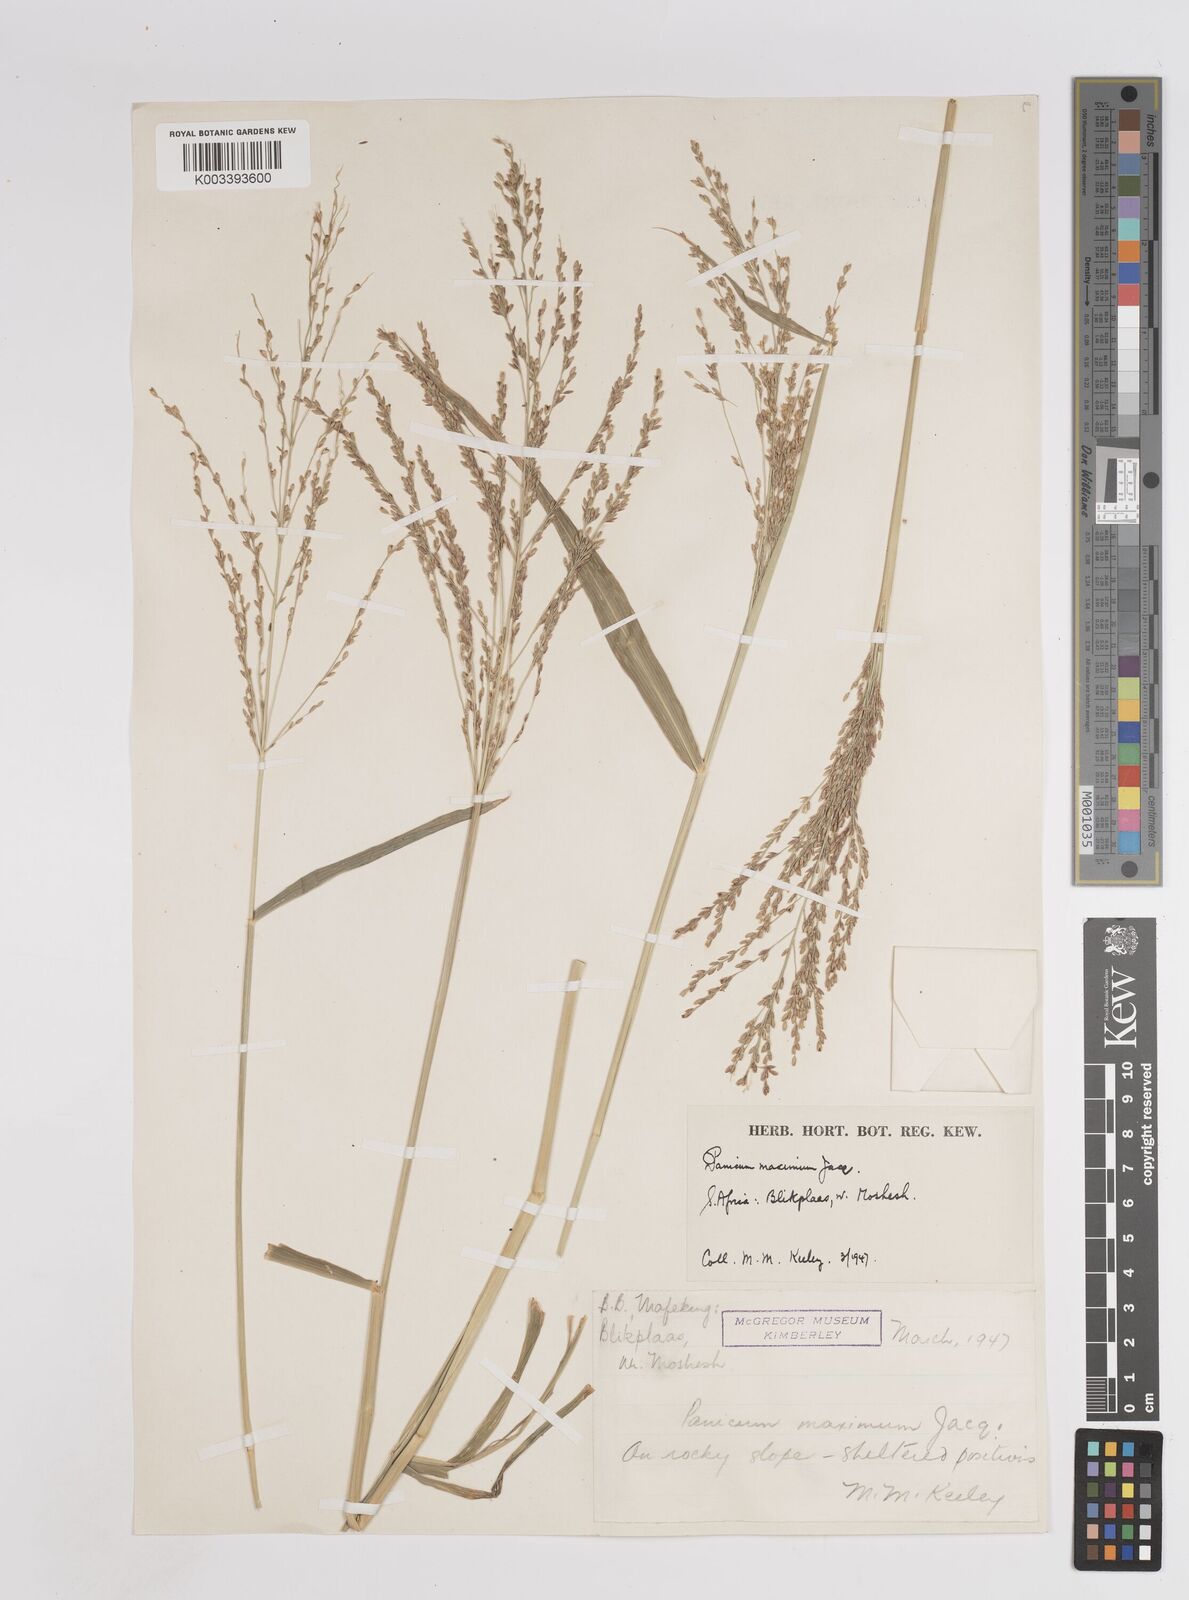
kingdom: Plantae
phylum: Tracheophyta
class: Liliopsida
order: Poales
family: Poaceae
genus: Megathyrsus
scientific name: Megathyrsus maximus
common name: Guineagrass
